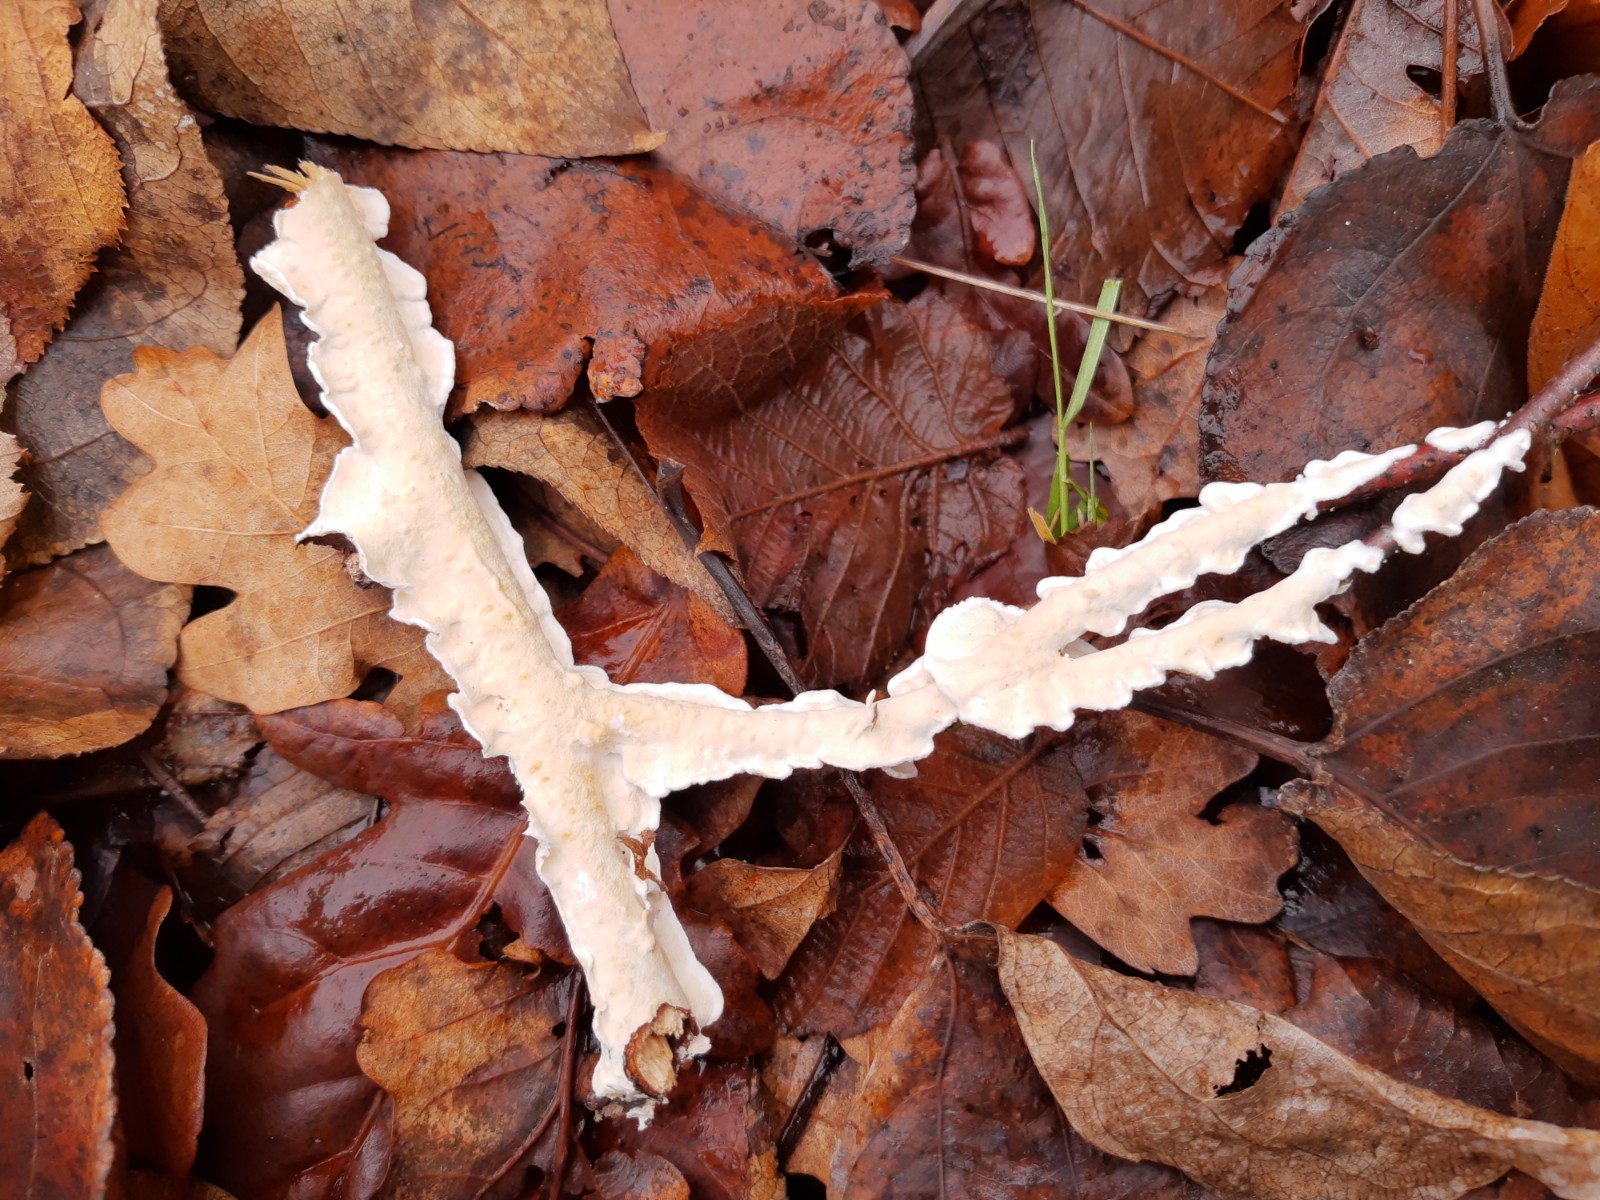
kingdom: Fungi
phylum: Basidiomycota
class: Agaricomycetes
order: Polyporales
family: Irpicaceae
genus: Byssomerulius
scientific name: Byssomerulius corium
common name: læder-åresvamp
